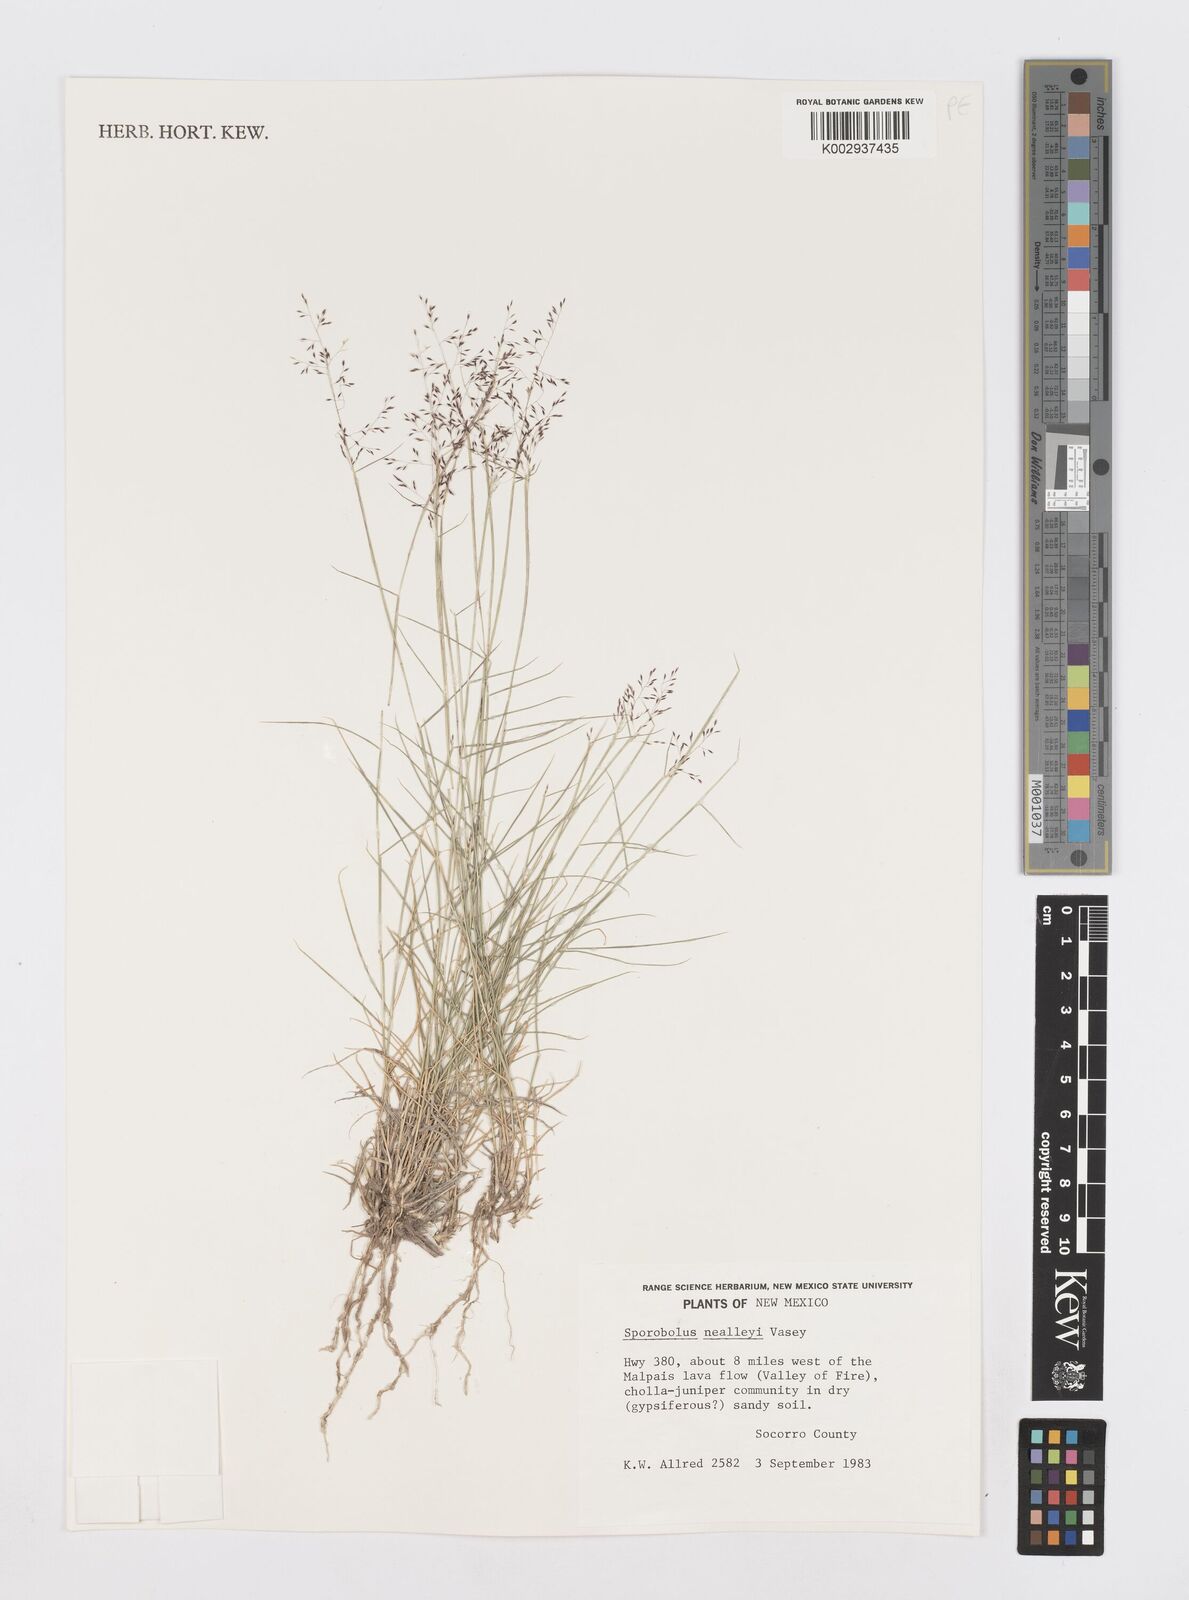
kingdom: Plantae
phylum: Tracheophyta
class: Liliopsida
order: Poales
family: Poaceae
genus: Sporobolus
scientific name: Sporobolus nealleyi
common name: Gyp grass
